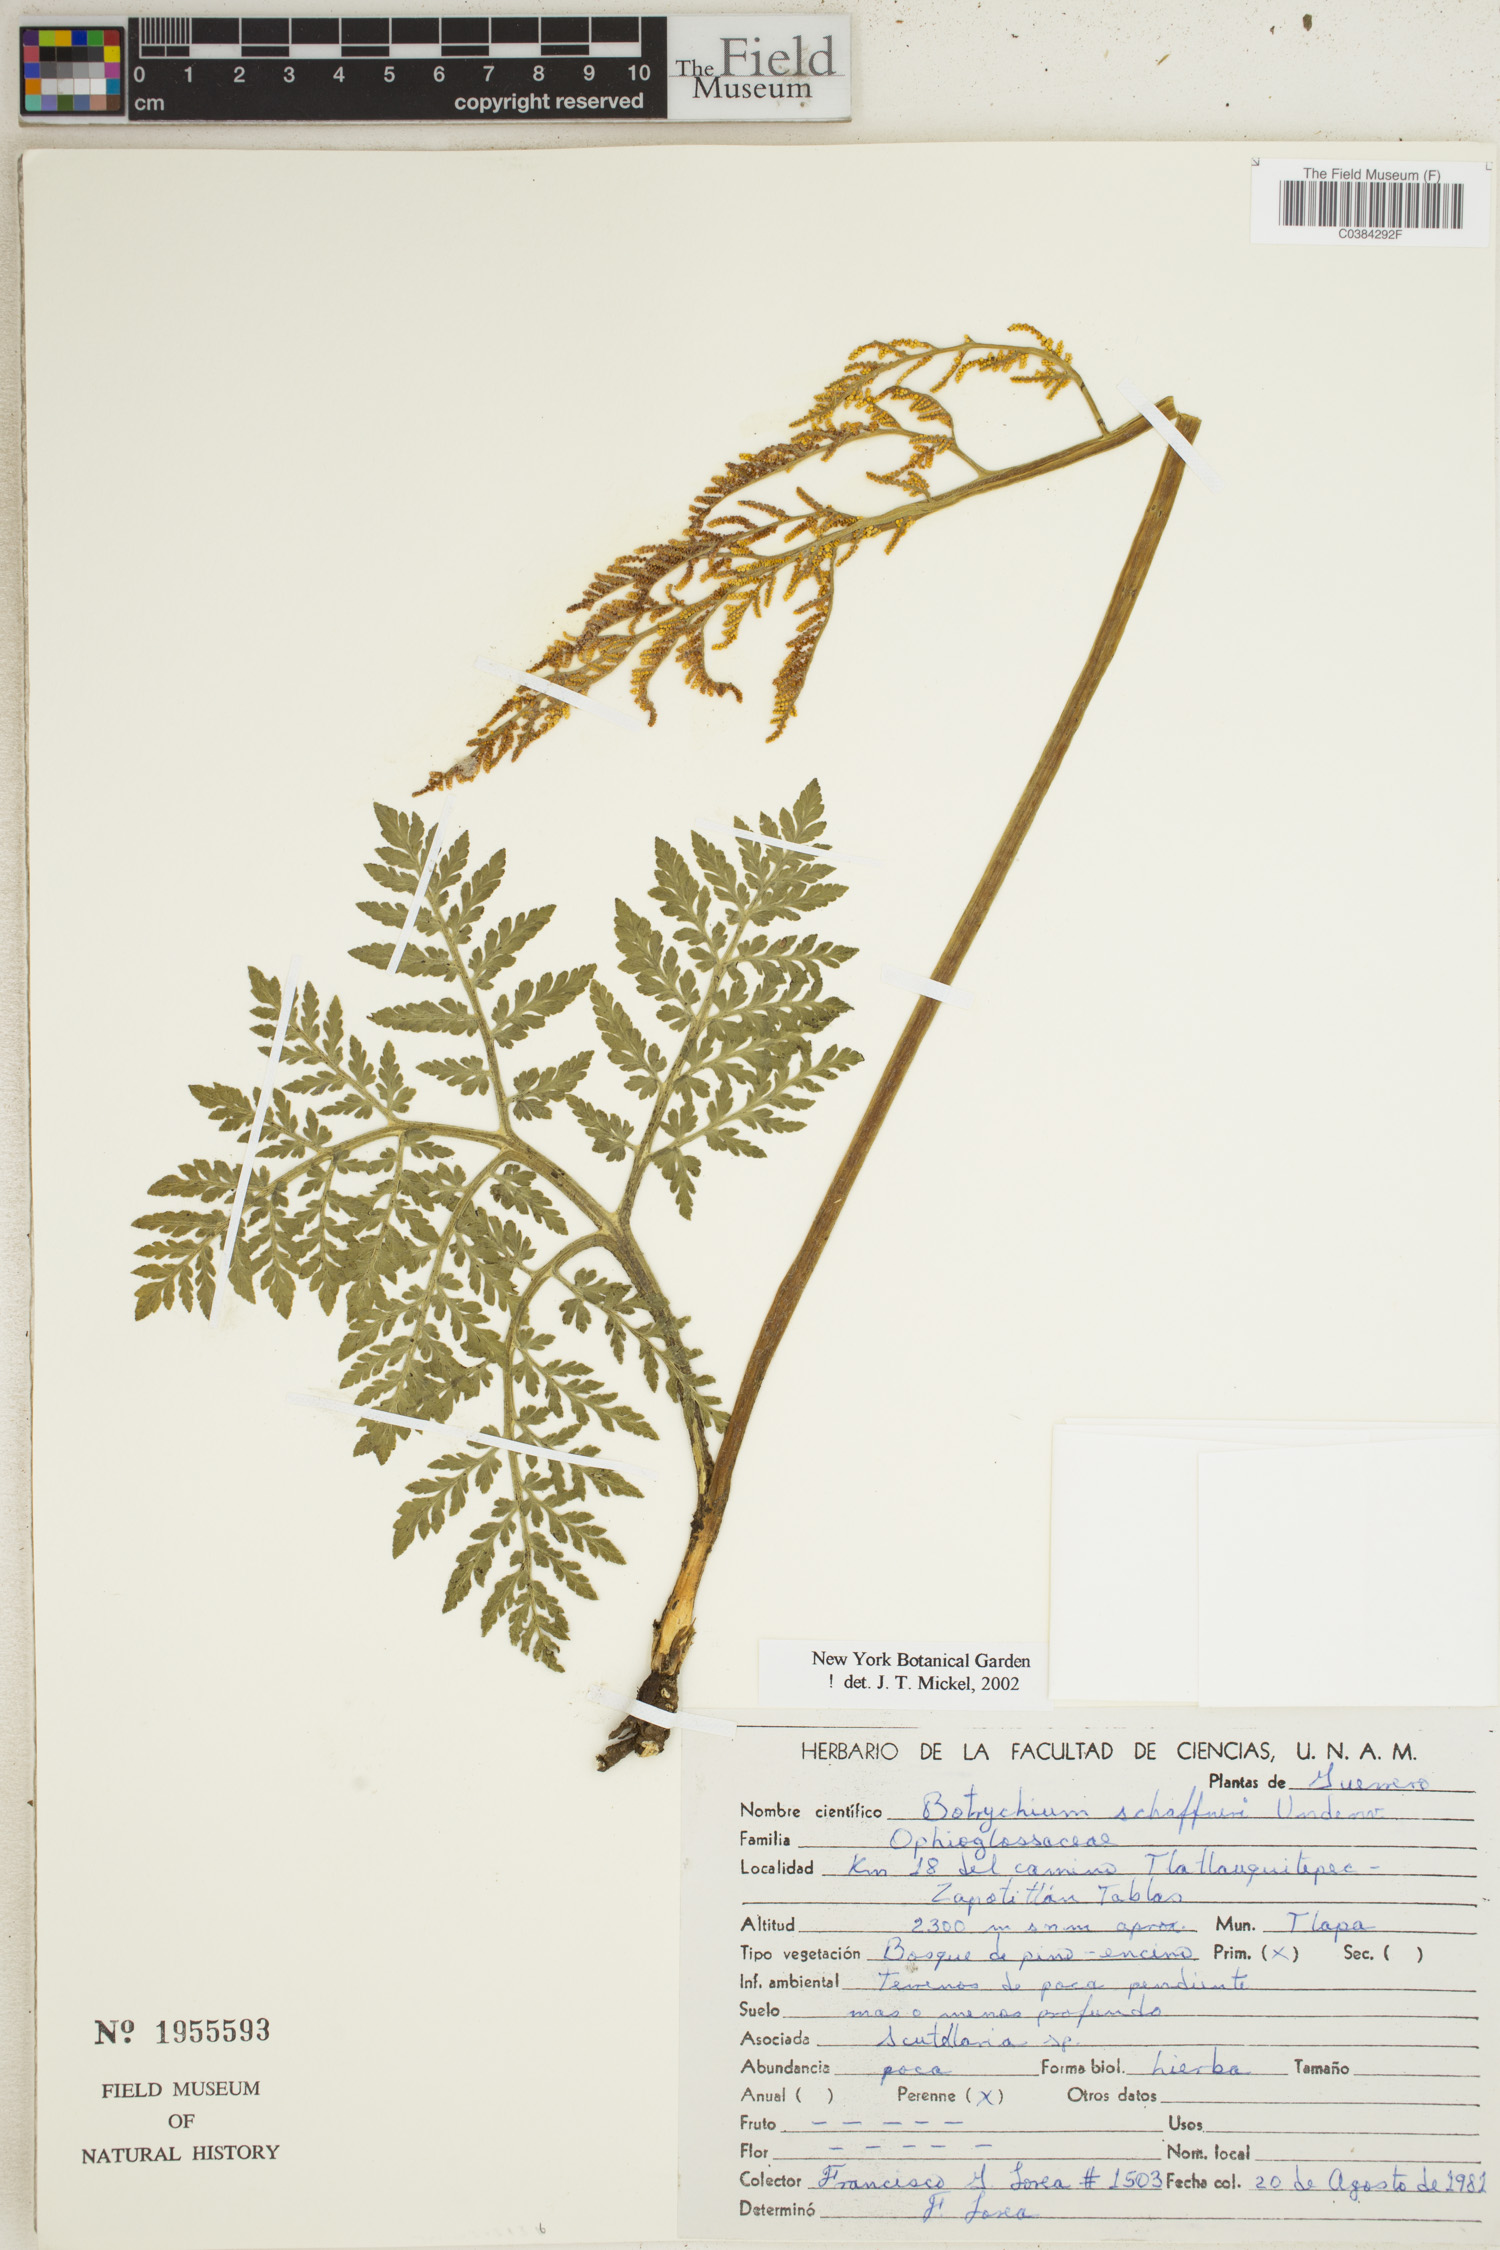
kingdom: Plantae
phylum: Tracheophyta
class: Polypodiopsida
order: Ophioglossales
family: Ophioglossaceae
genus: Sceptridium
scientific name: Sceptridium schaffneri
